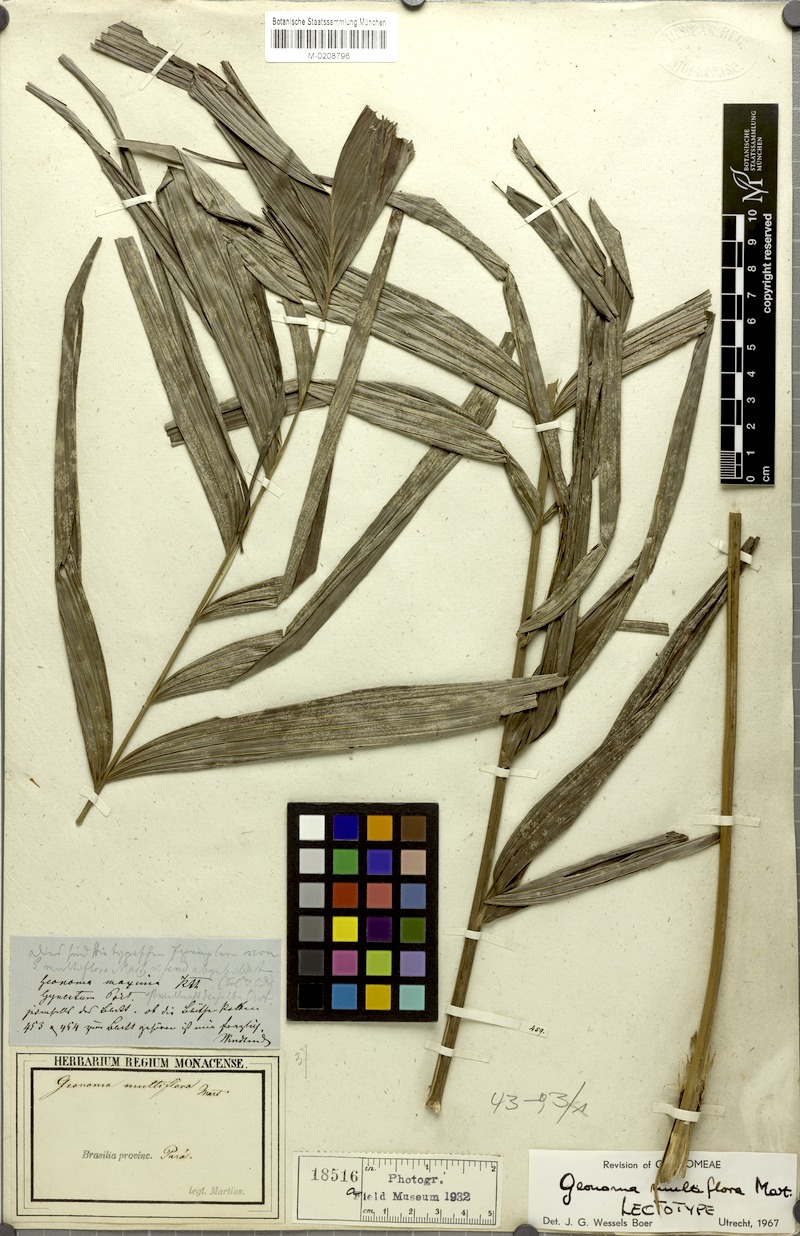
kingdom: Plantae
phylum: Tracheophyta
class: Liliopsida
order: Arecales
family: Arecaceae
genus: Geonoma
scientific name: Geonoma maxima
